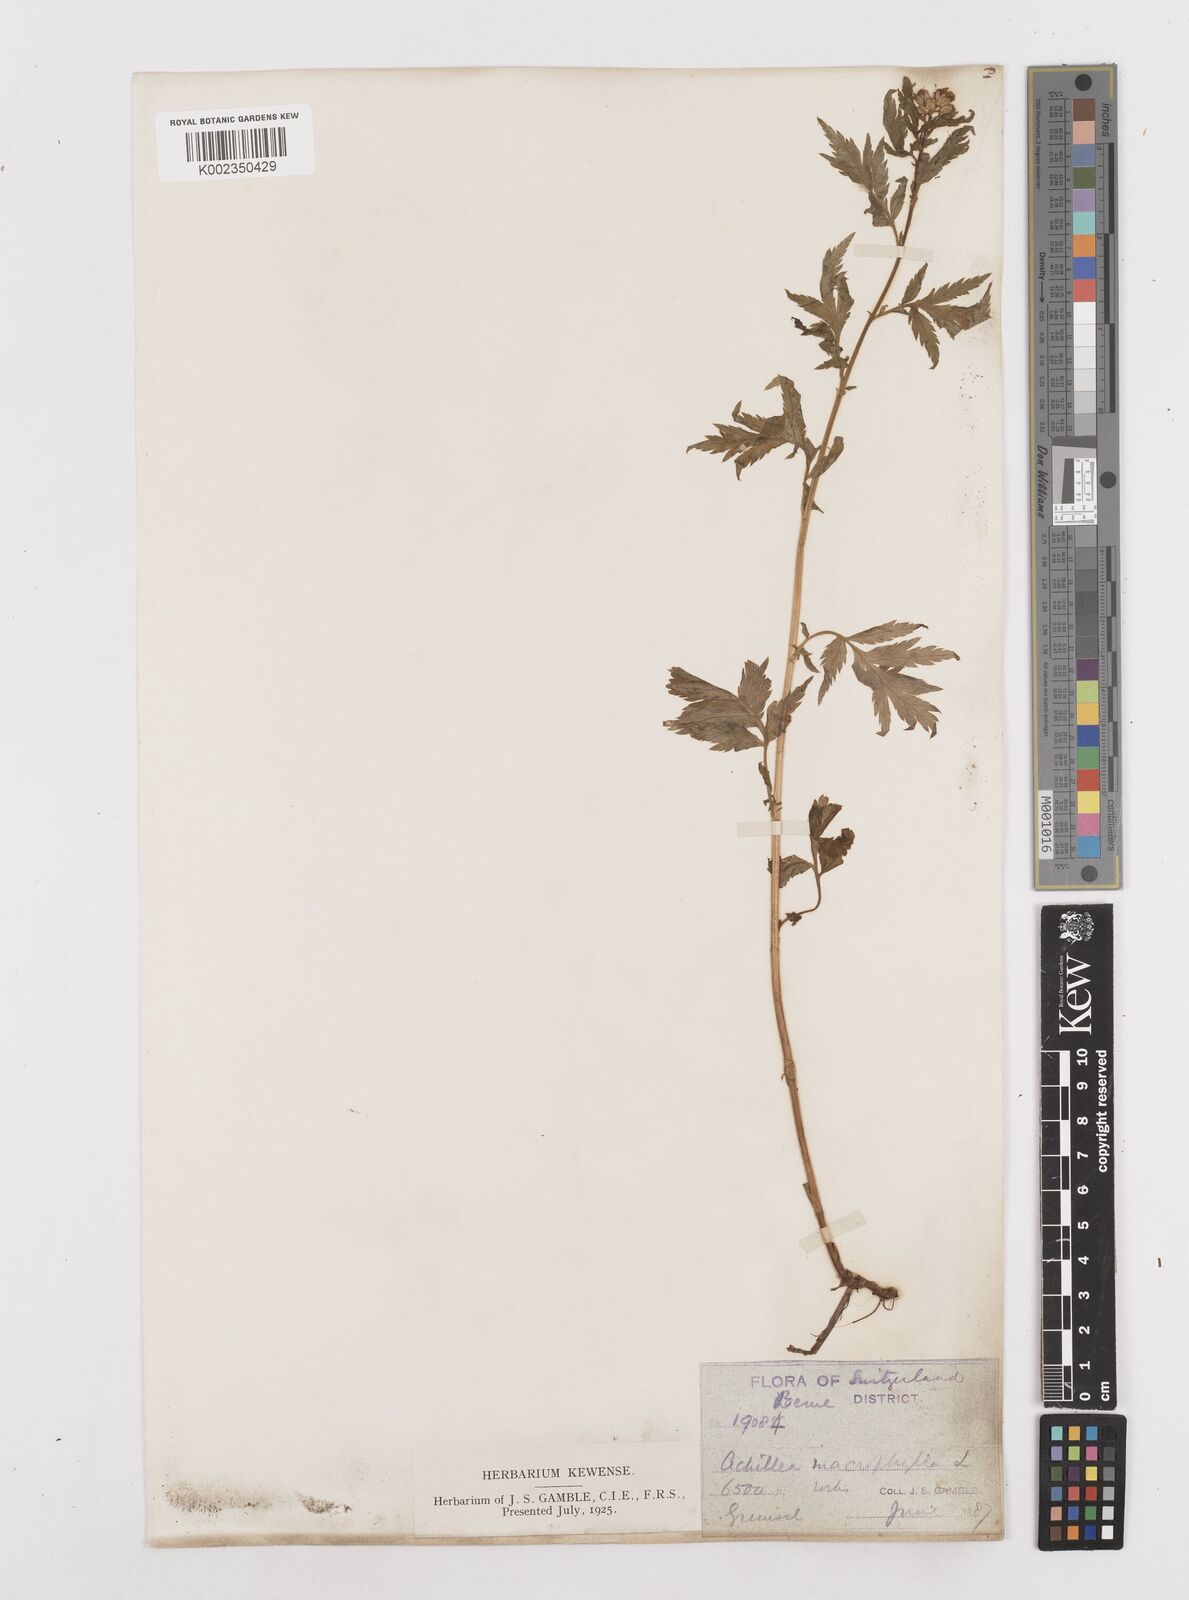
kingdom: Plantae
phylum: Tracheophyta
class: Magnoliopsida
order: Asterales
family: Asteraceae
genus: Achillea
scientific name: Achillea macrophylla
